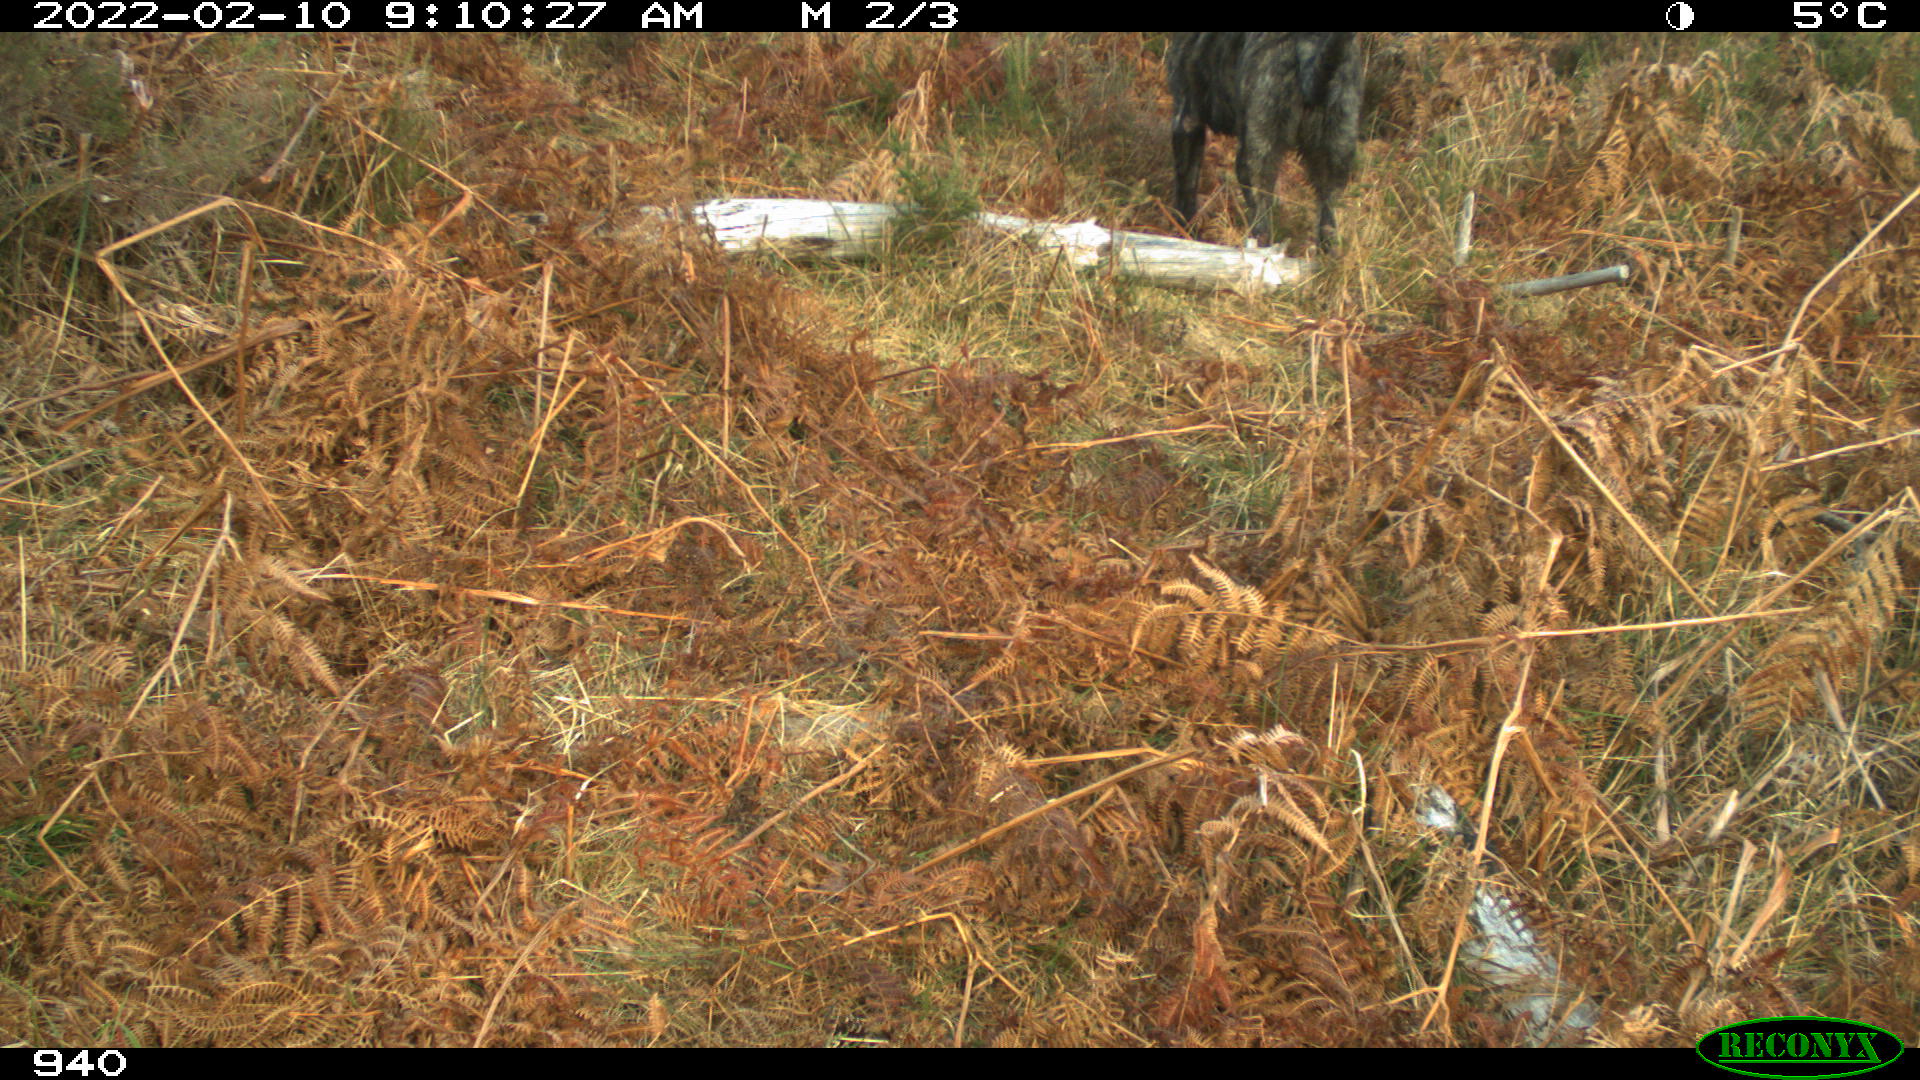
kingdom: Animalia
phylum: Chordata
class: Mammalia
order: Carnivora
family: Canidae
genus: Canis
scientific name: Canis lupus
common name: Gray wolf
